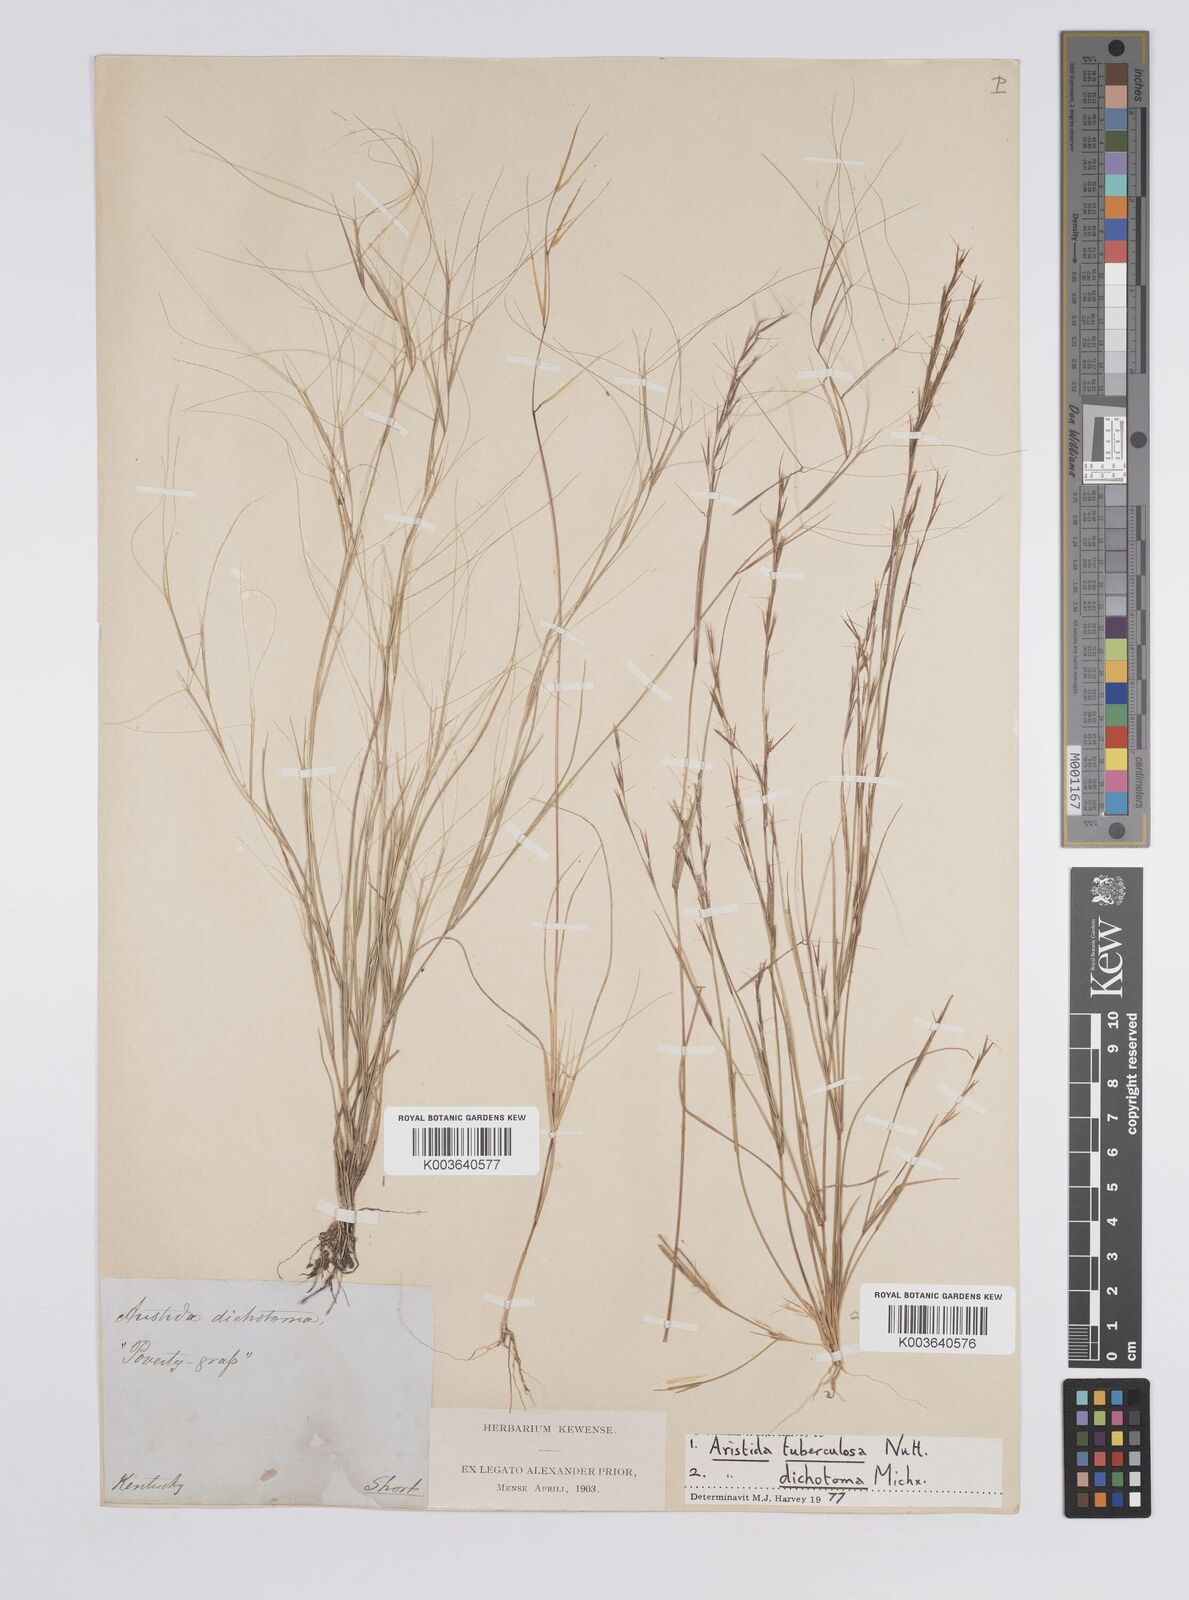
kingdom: Plantae
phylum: Tracheophyta
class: Liliopsida
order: Poales
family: Poaceae
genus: Aristida
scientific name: Aristida dichotoma
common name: Churchmouse three-awn
